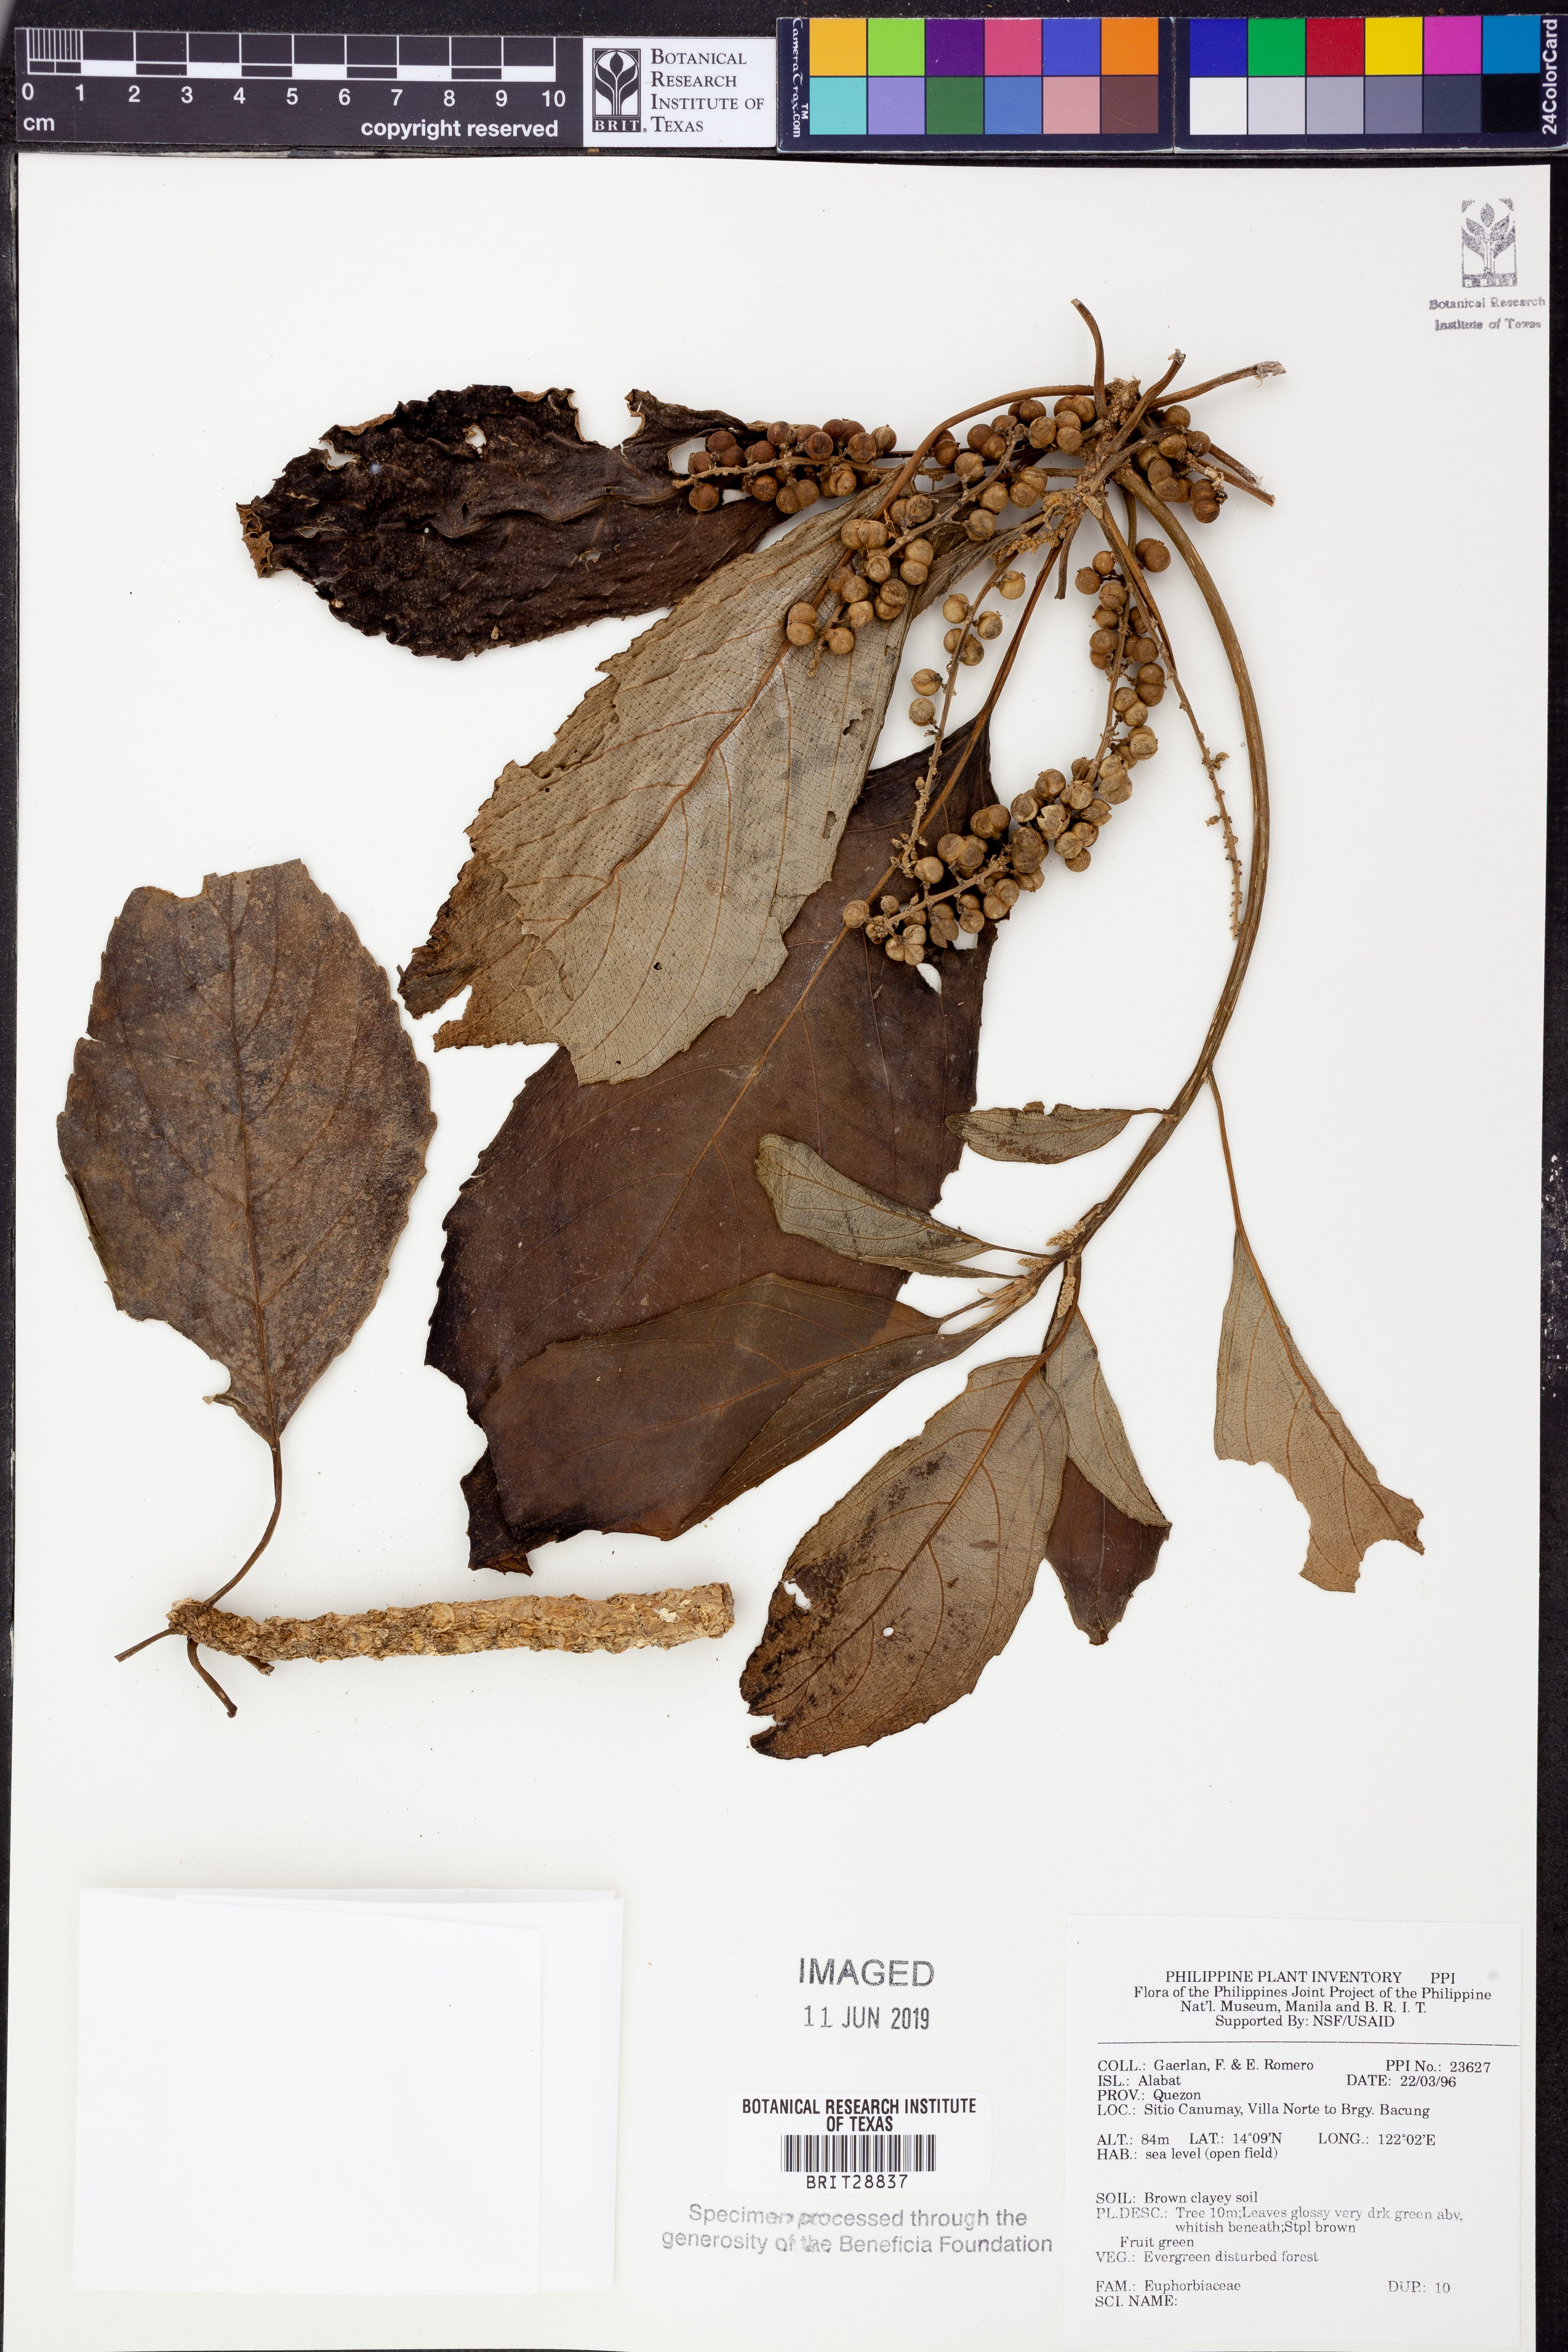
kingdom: Plantae
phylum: Tracheophyta
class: Magnoliopsida
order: Malpighiales
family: Euphorbiaceae
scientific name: Euphorbiaceae
